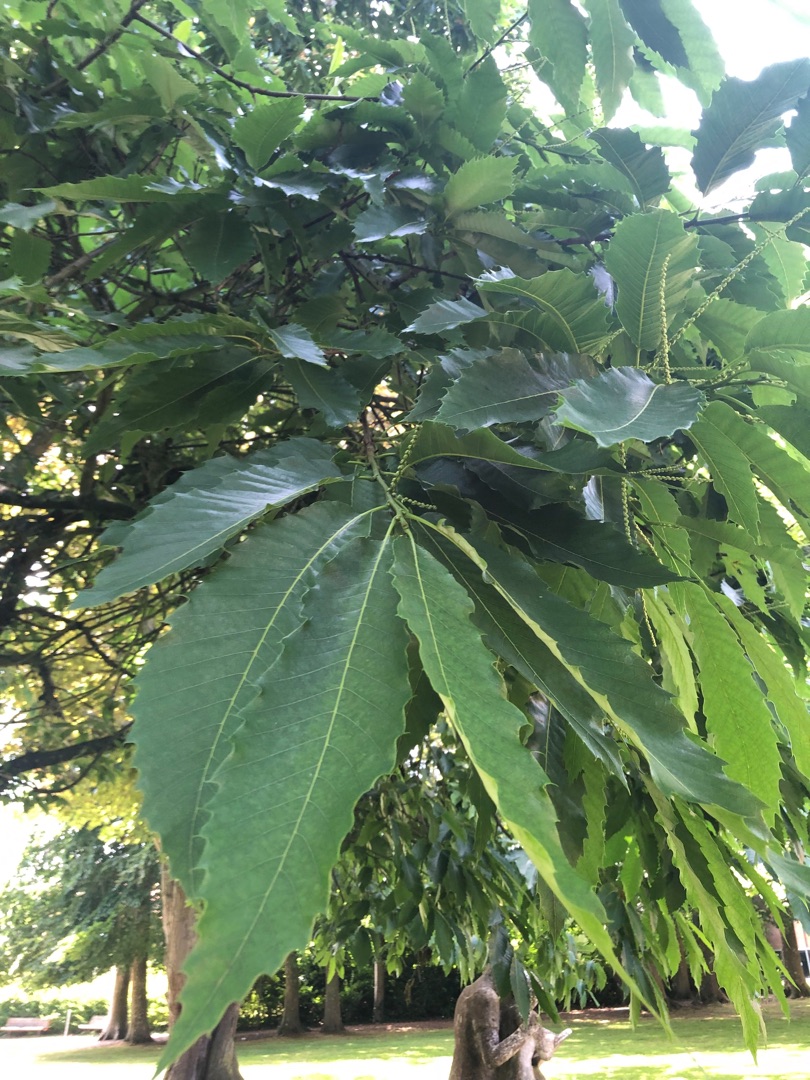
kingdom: Plantae
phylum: Tracheophyta
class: Magnoliopsida
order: Fagales
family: Fagaceae
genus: Castanea
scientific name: Castanea sativa
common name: Ægte kastanie
